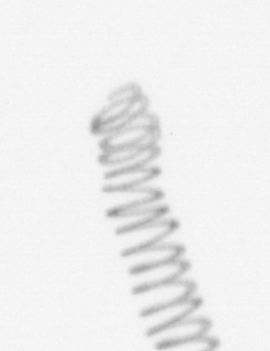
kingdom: Chromista
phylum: Ochrophyta
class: Bacillariophyceae
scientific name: Bacillariophyceae
